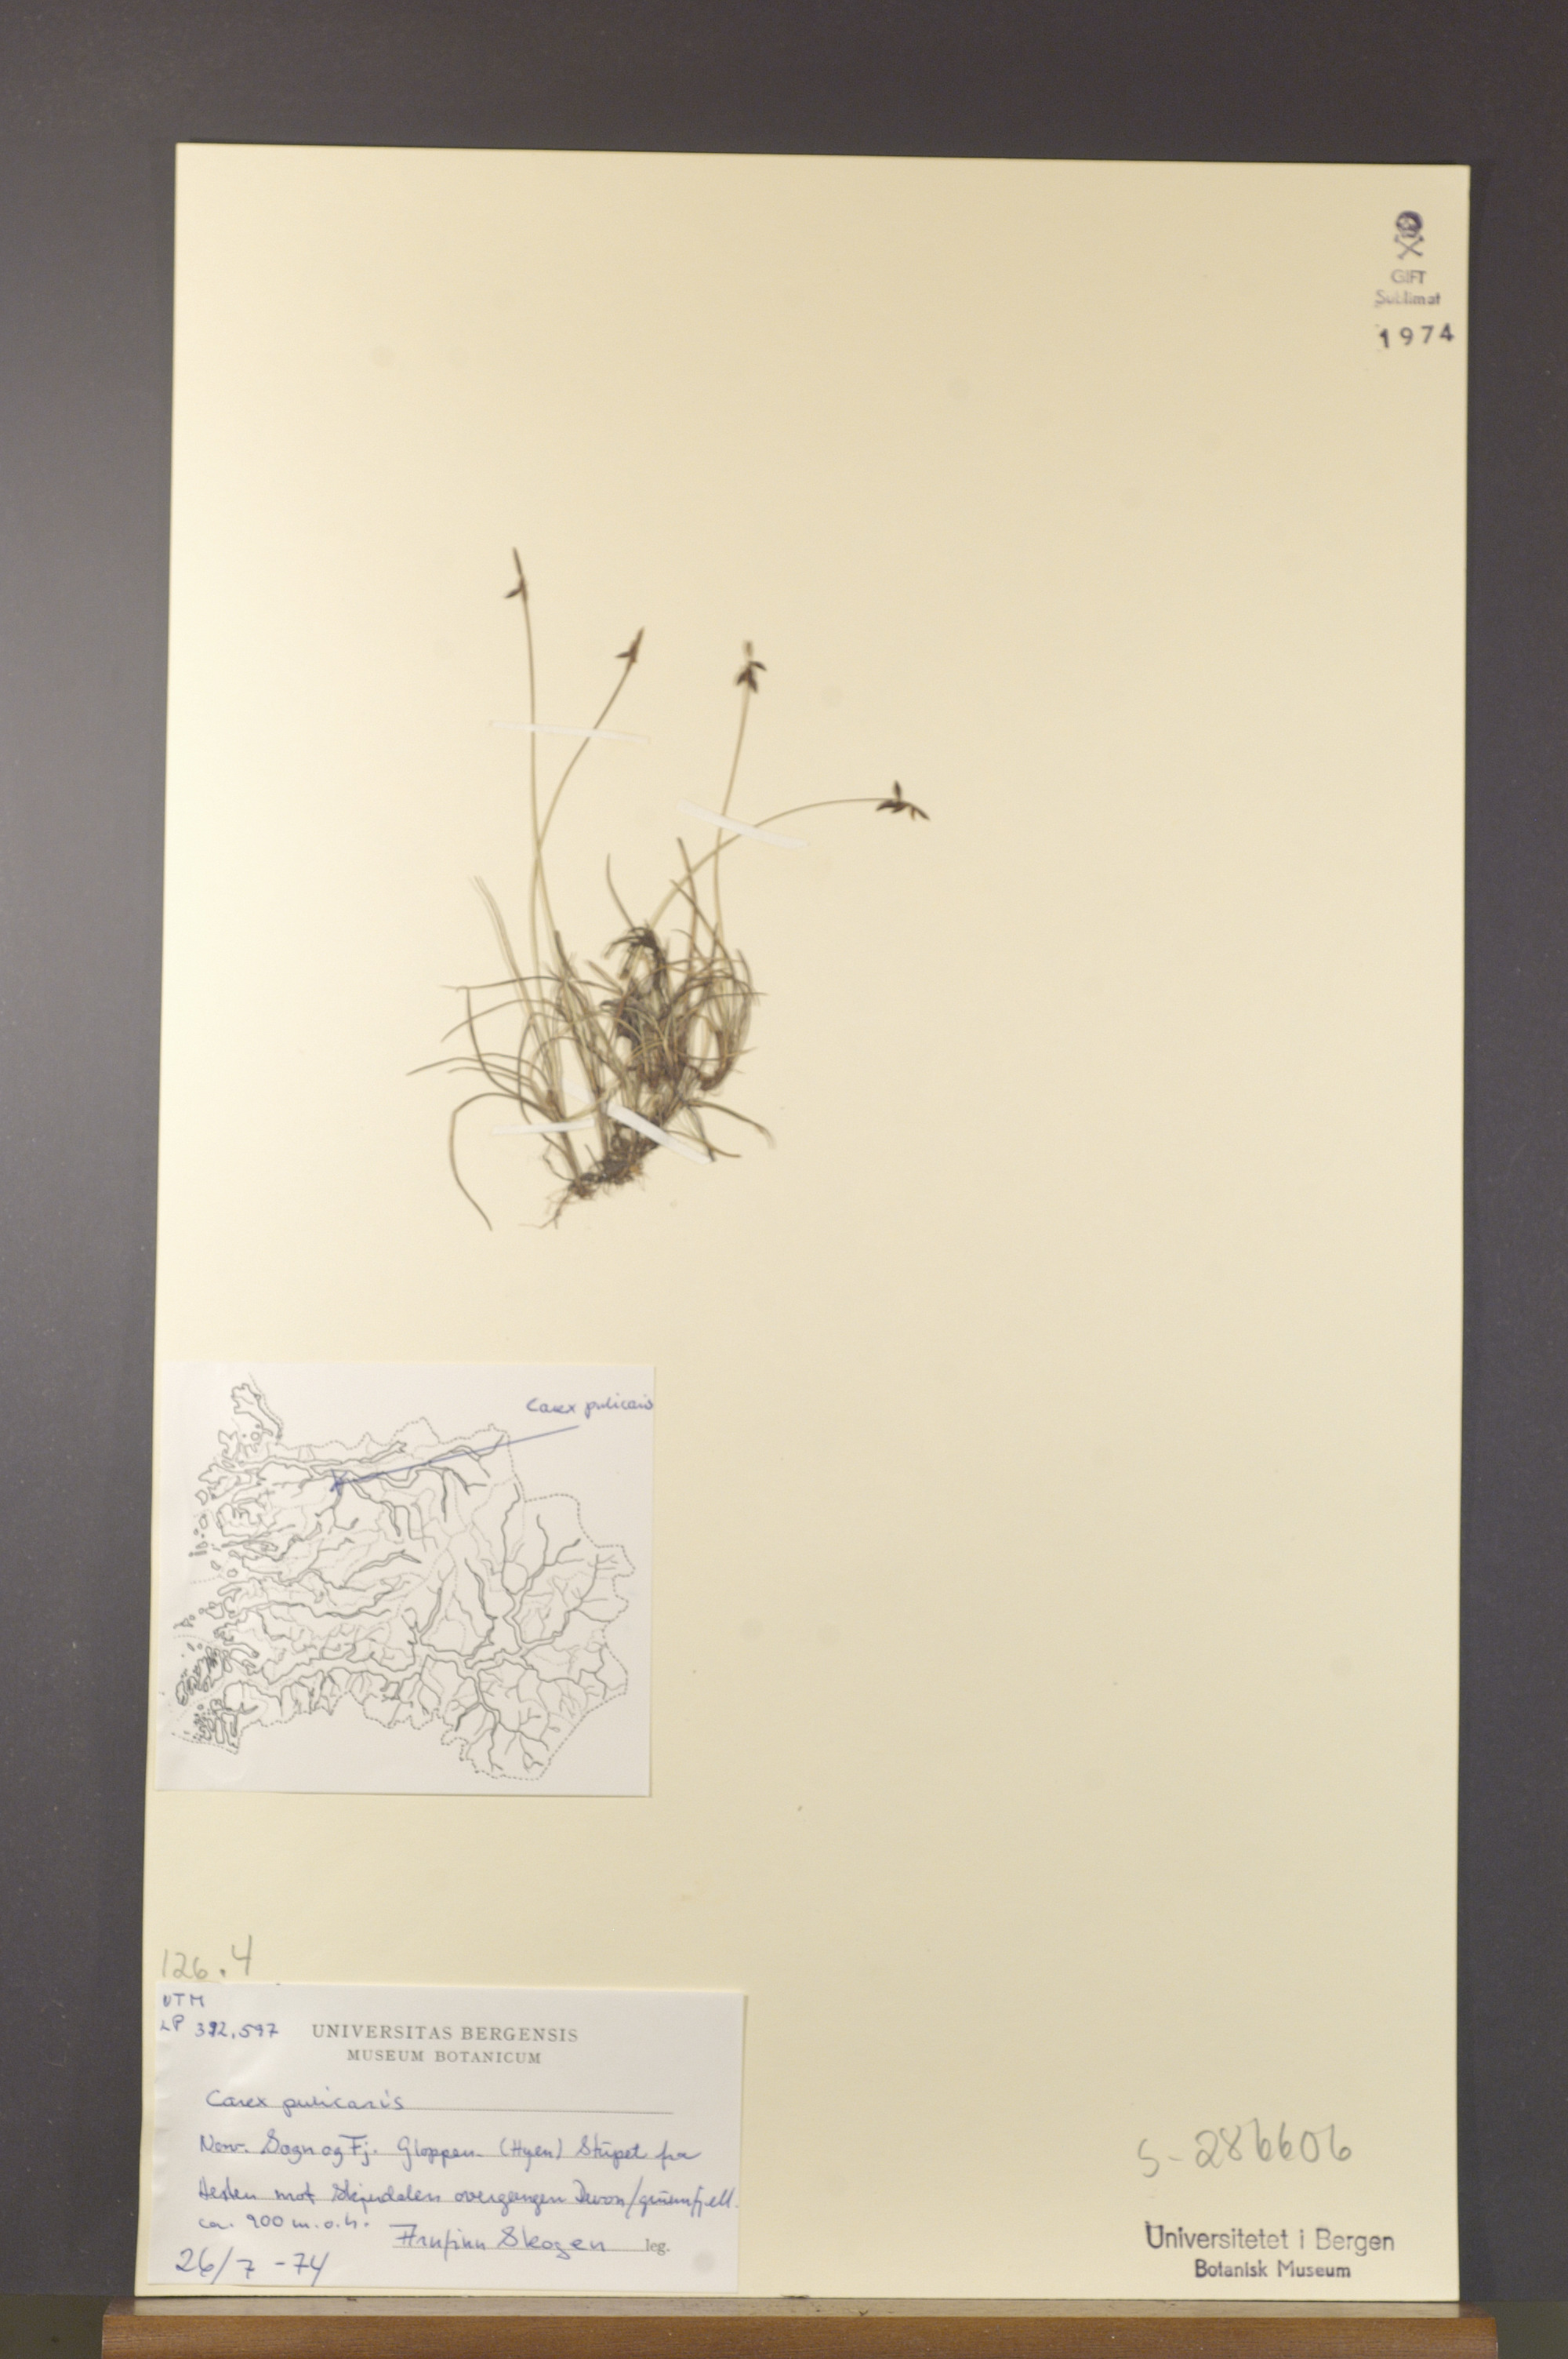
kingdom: Plantae
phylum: Tracheophyta
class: Liliopsida
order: Poales
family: Cyperaceae
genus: Carex
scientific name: Carex pulicaris
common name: Flea sedge
